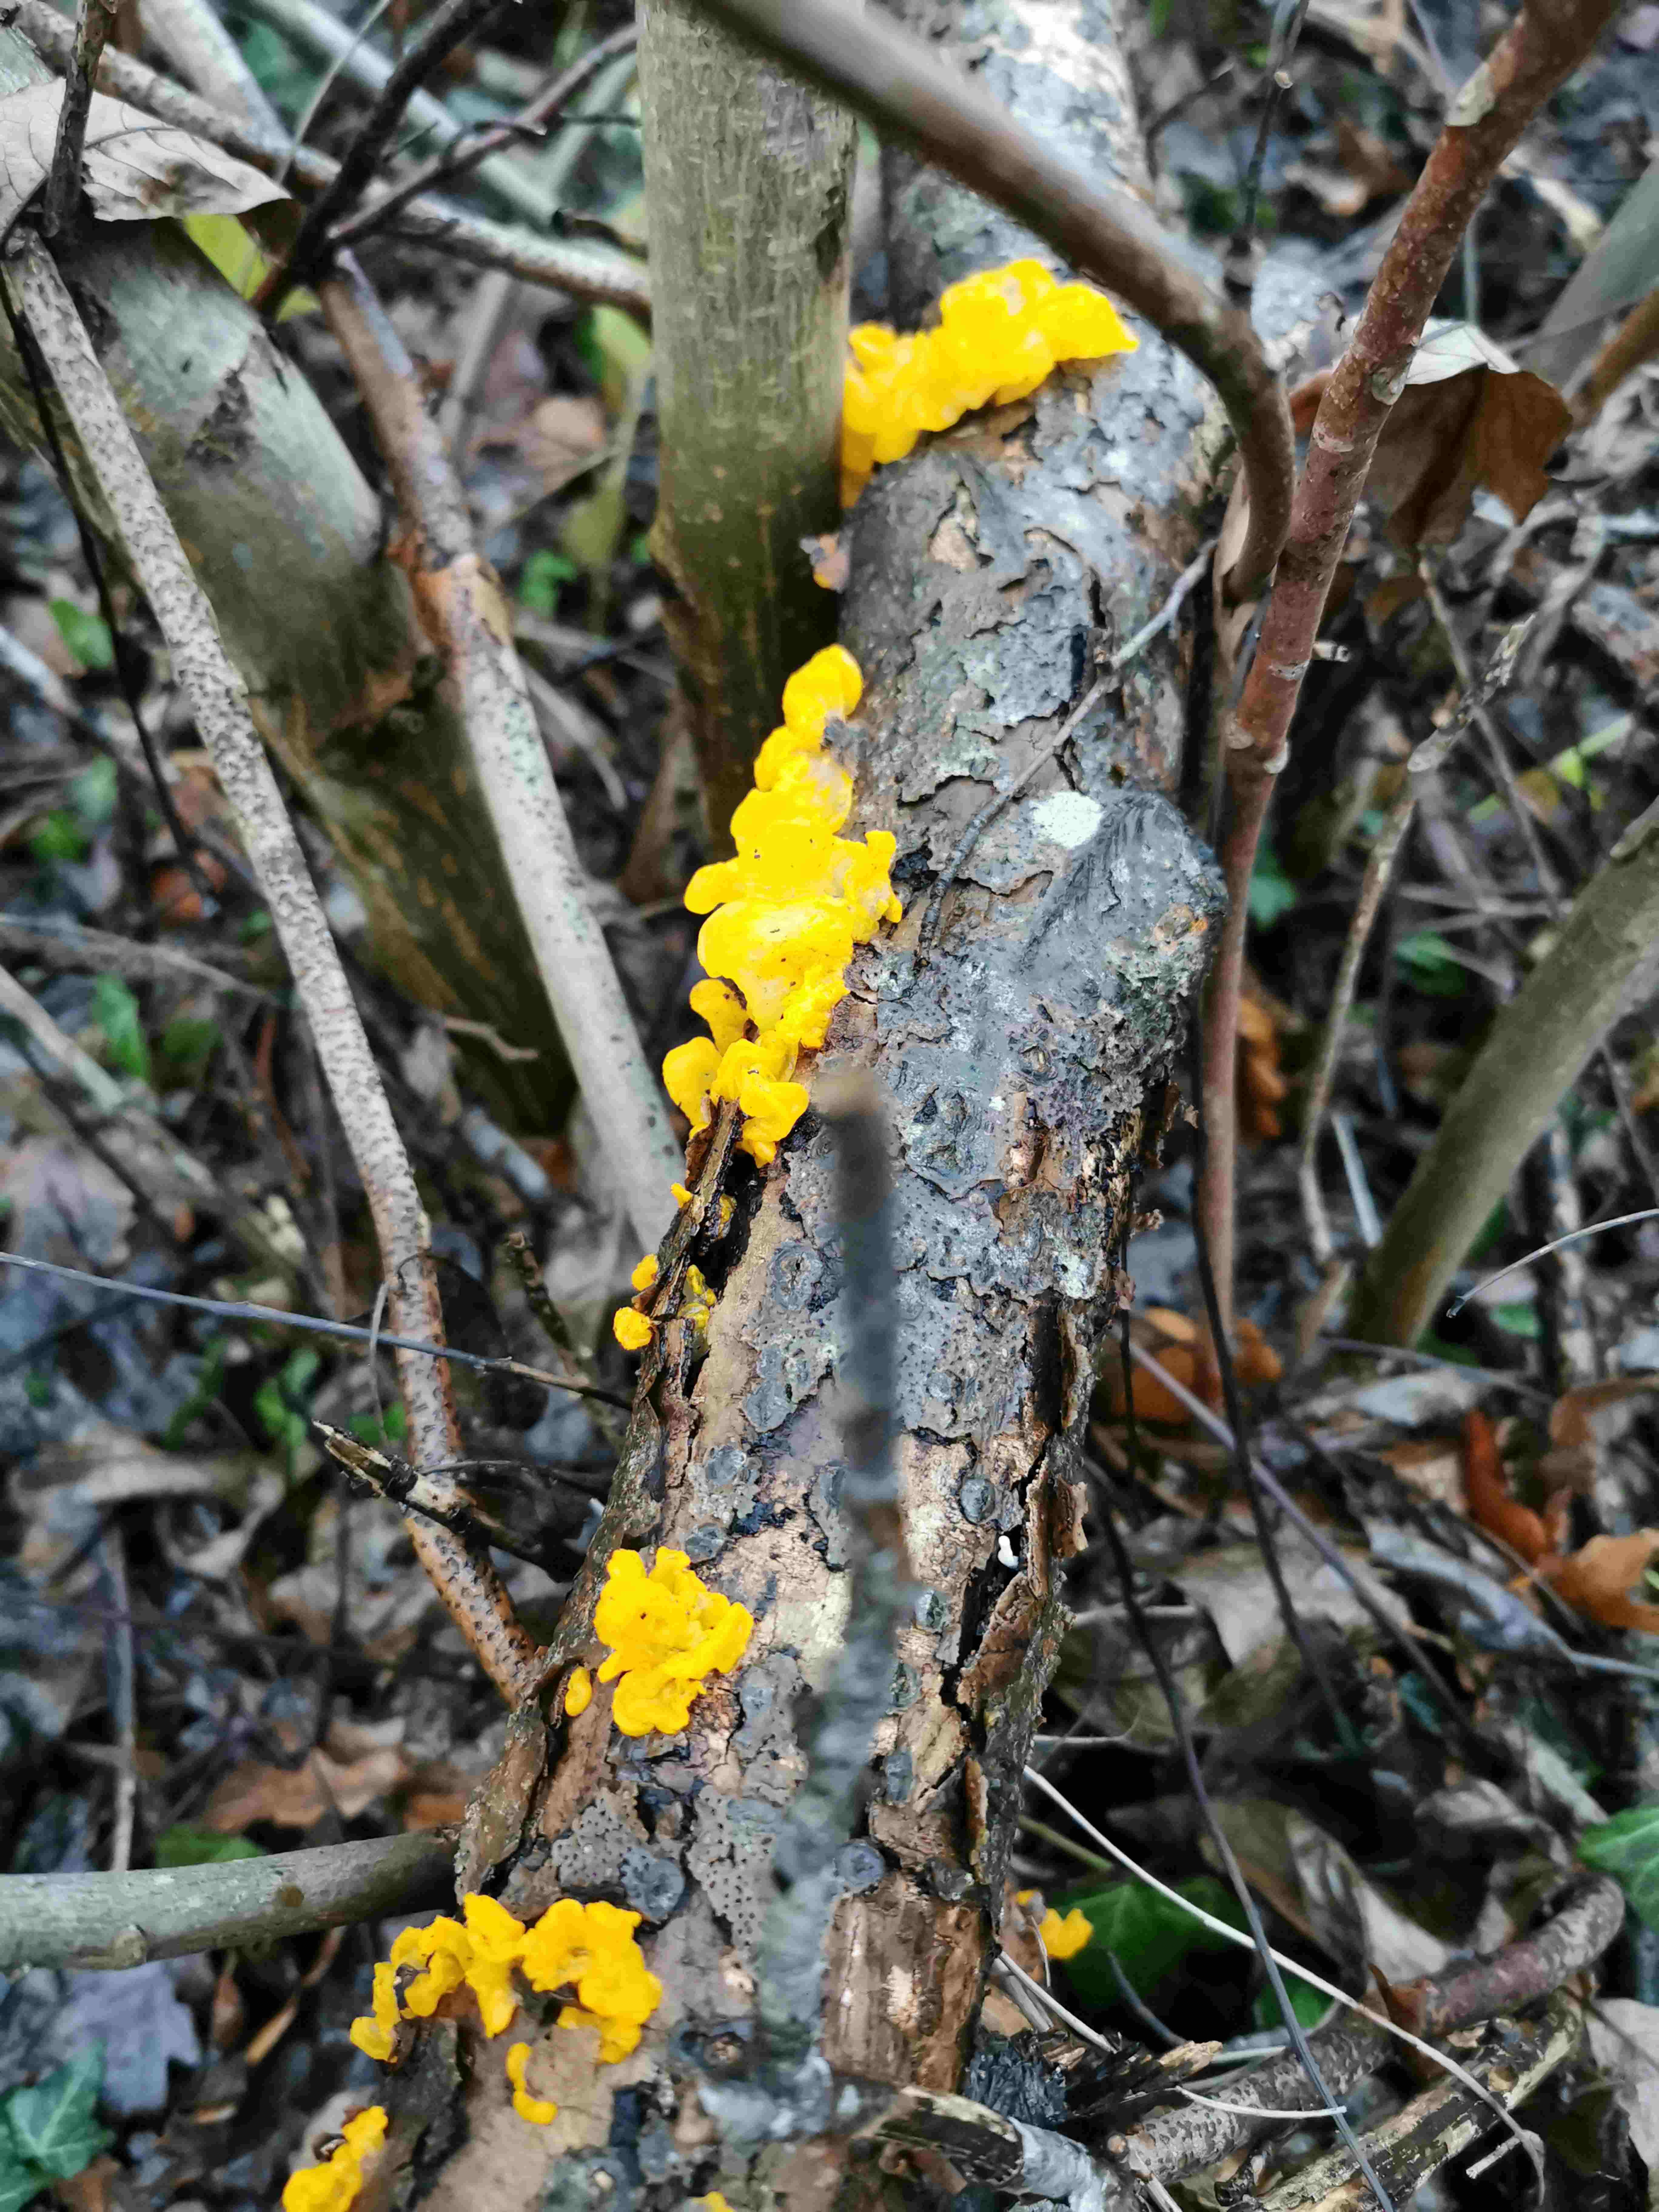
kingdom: Fungi
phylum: Basidiomycota
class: Tremellomycetes
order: Tremellales
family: Tremellaceae
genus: Tremella
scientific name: Tremella mesenterica
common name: gul bævresvamp
